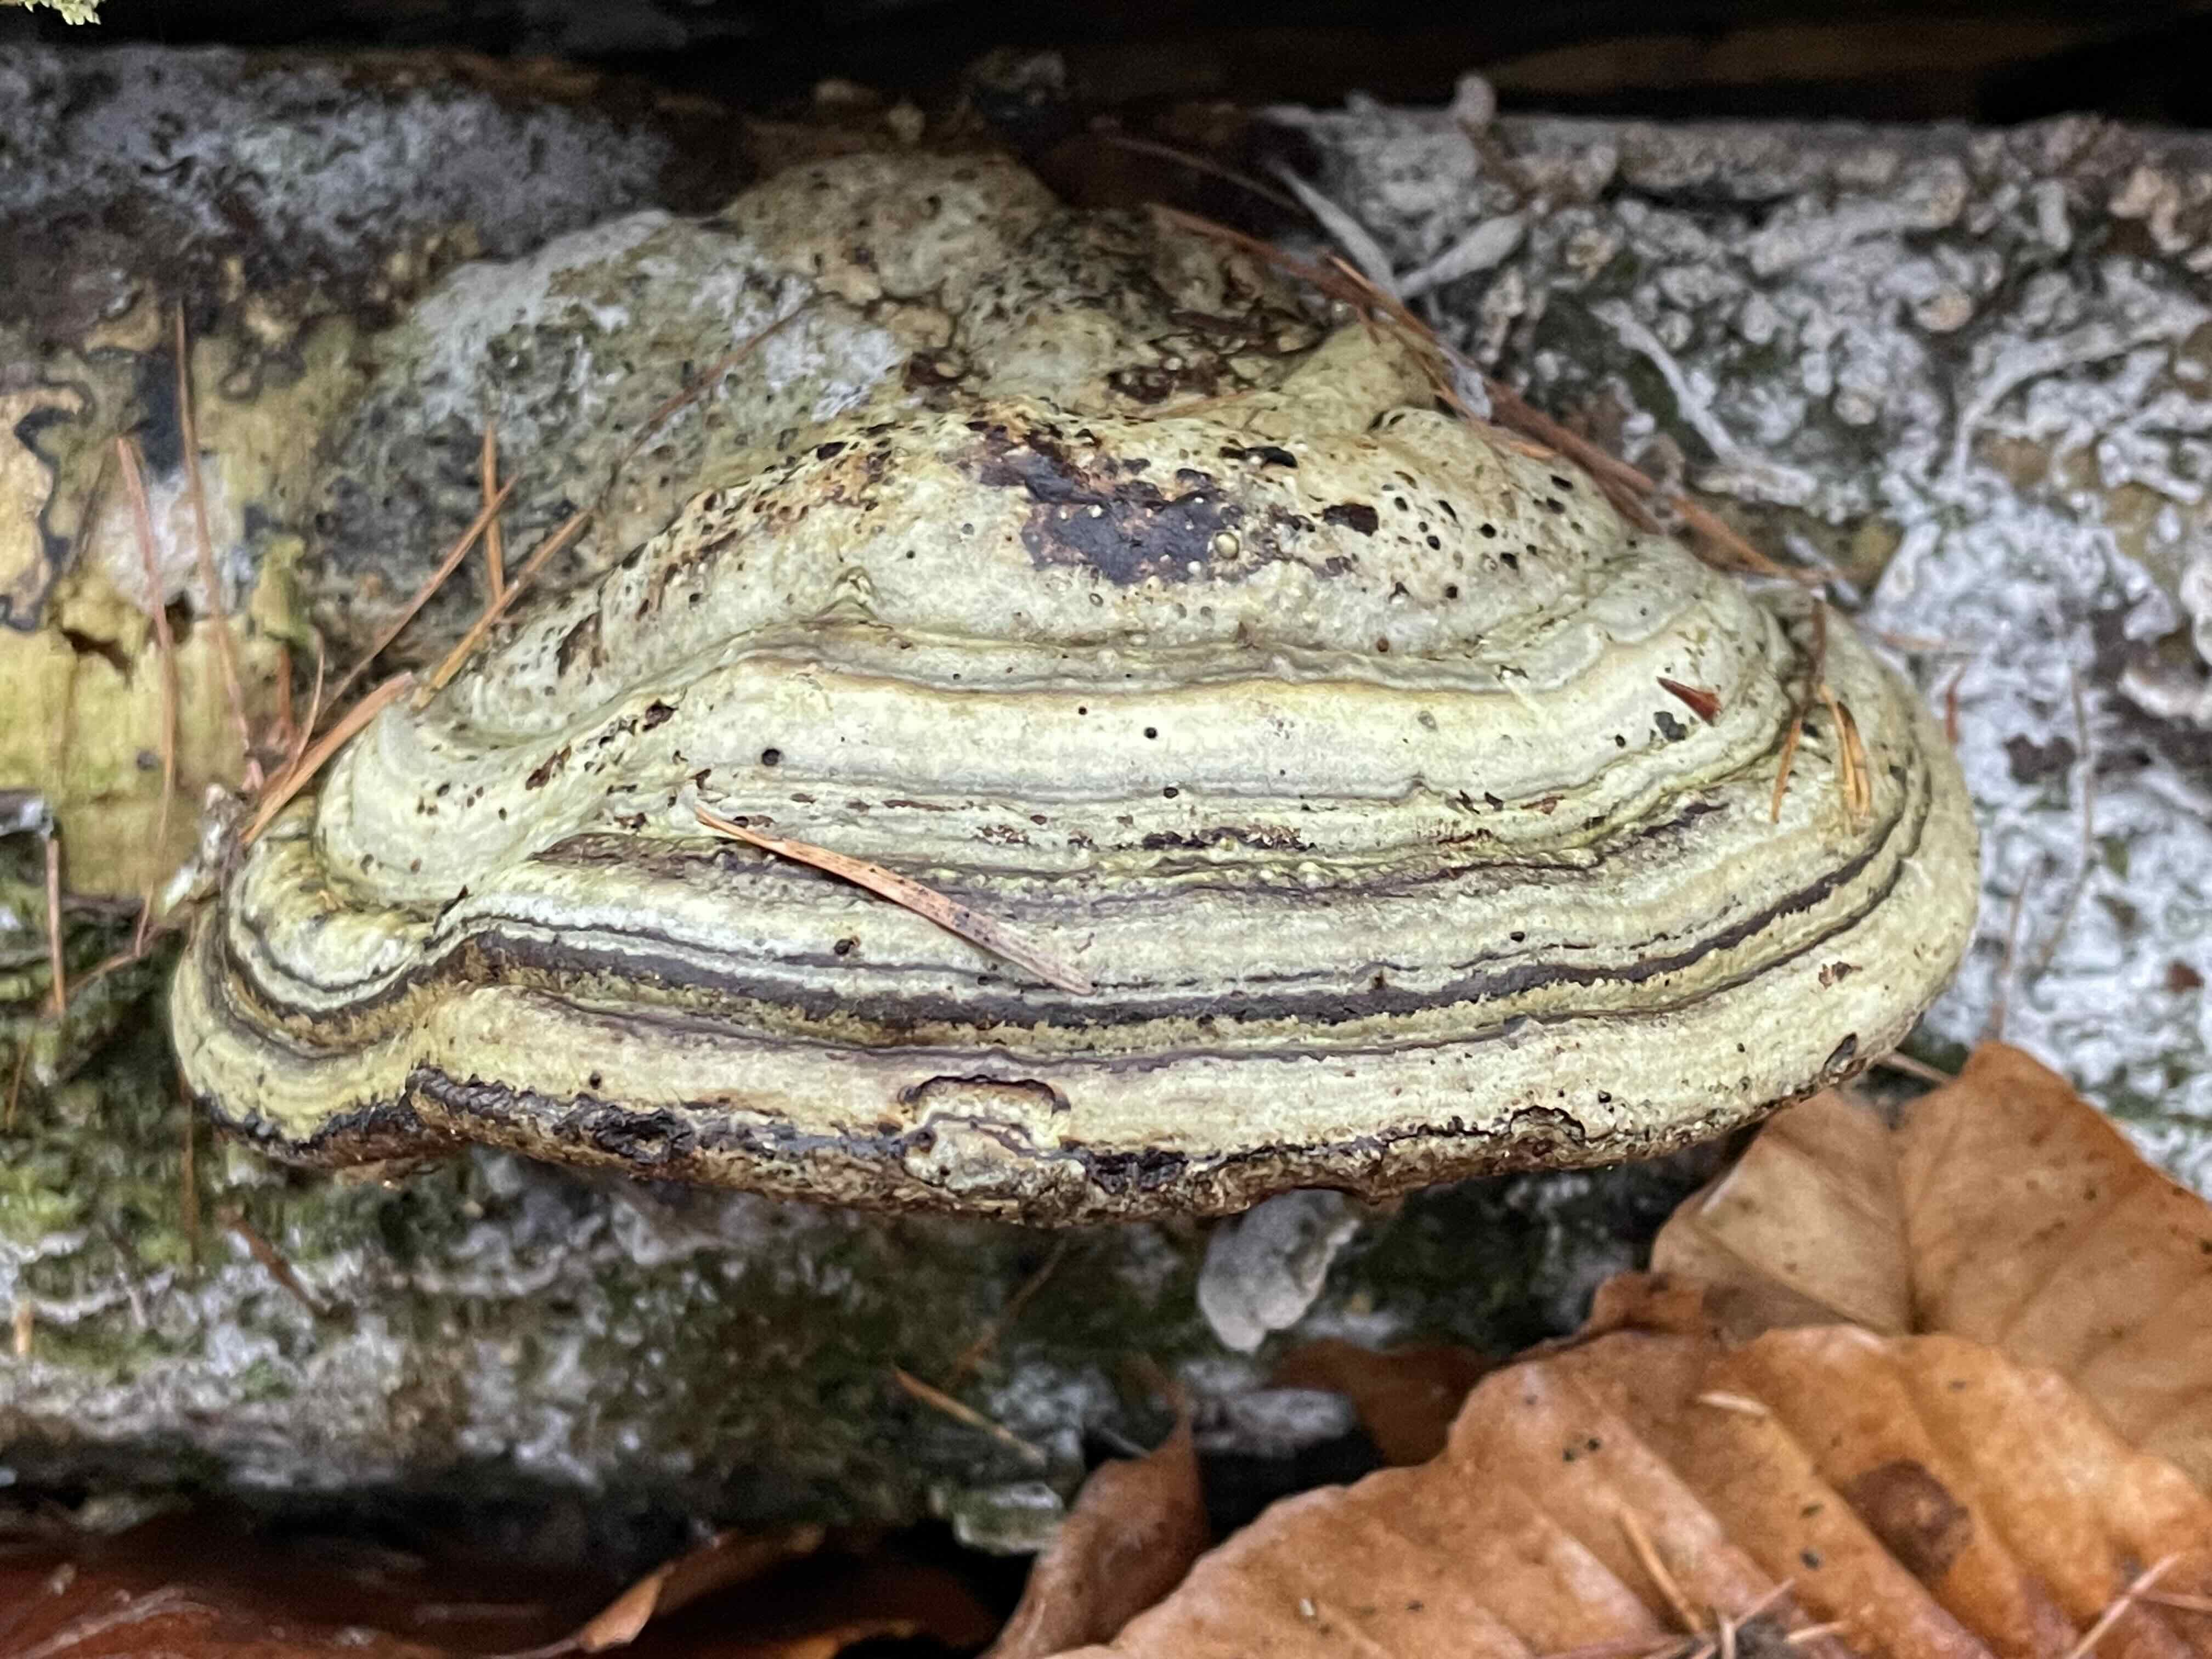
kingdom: Fungi
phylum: Basidiomycota
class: Agaricomycetes
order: Polyporales
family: Polyporaceae
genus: Fomes
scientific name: Fomes fomentarius
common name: tøndersvamp
